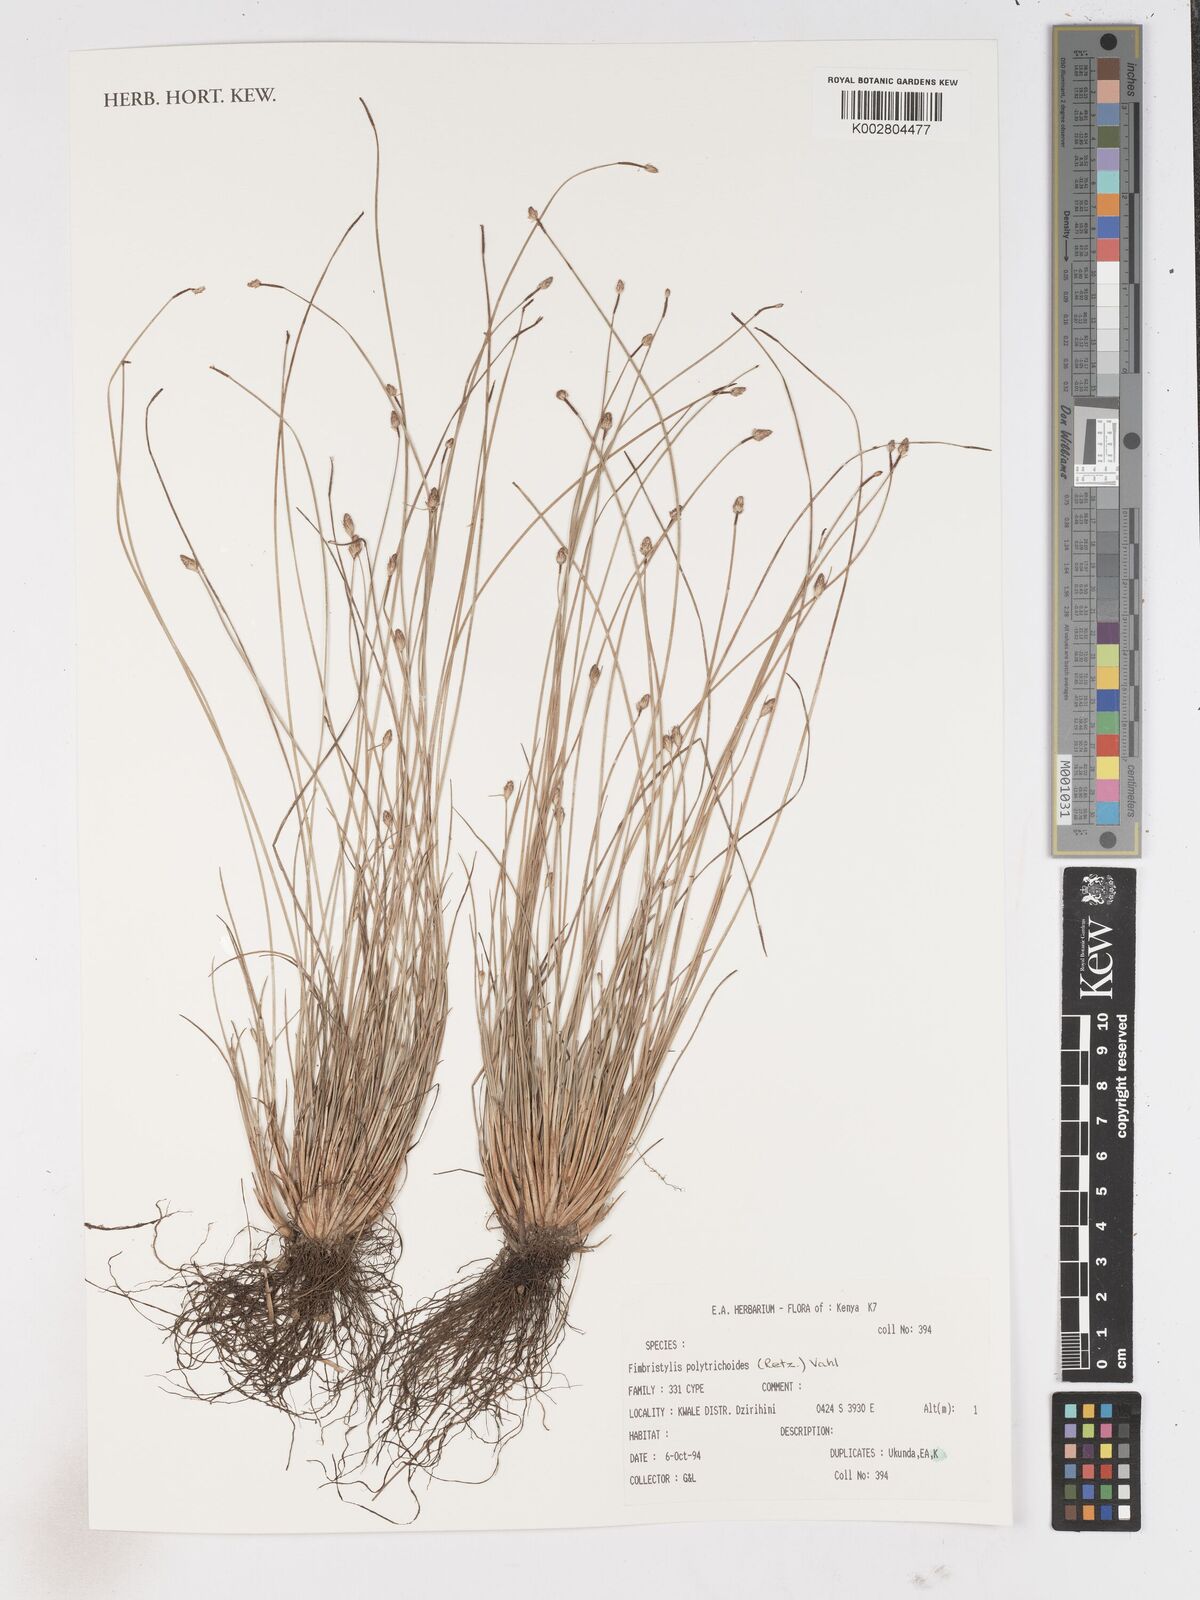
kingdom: Plantae
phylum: Tracheophyta
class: Liliopsida
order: Poales
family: Cyperaceae
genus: Fimbristylis
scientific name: Fimbristylis polytrichoides
